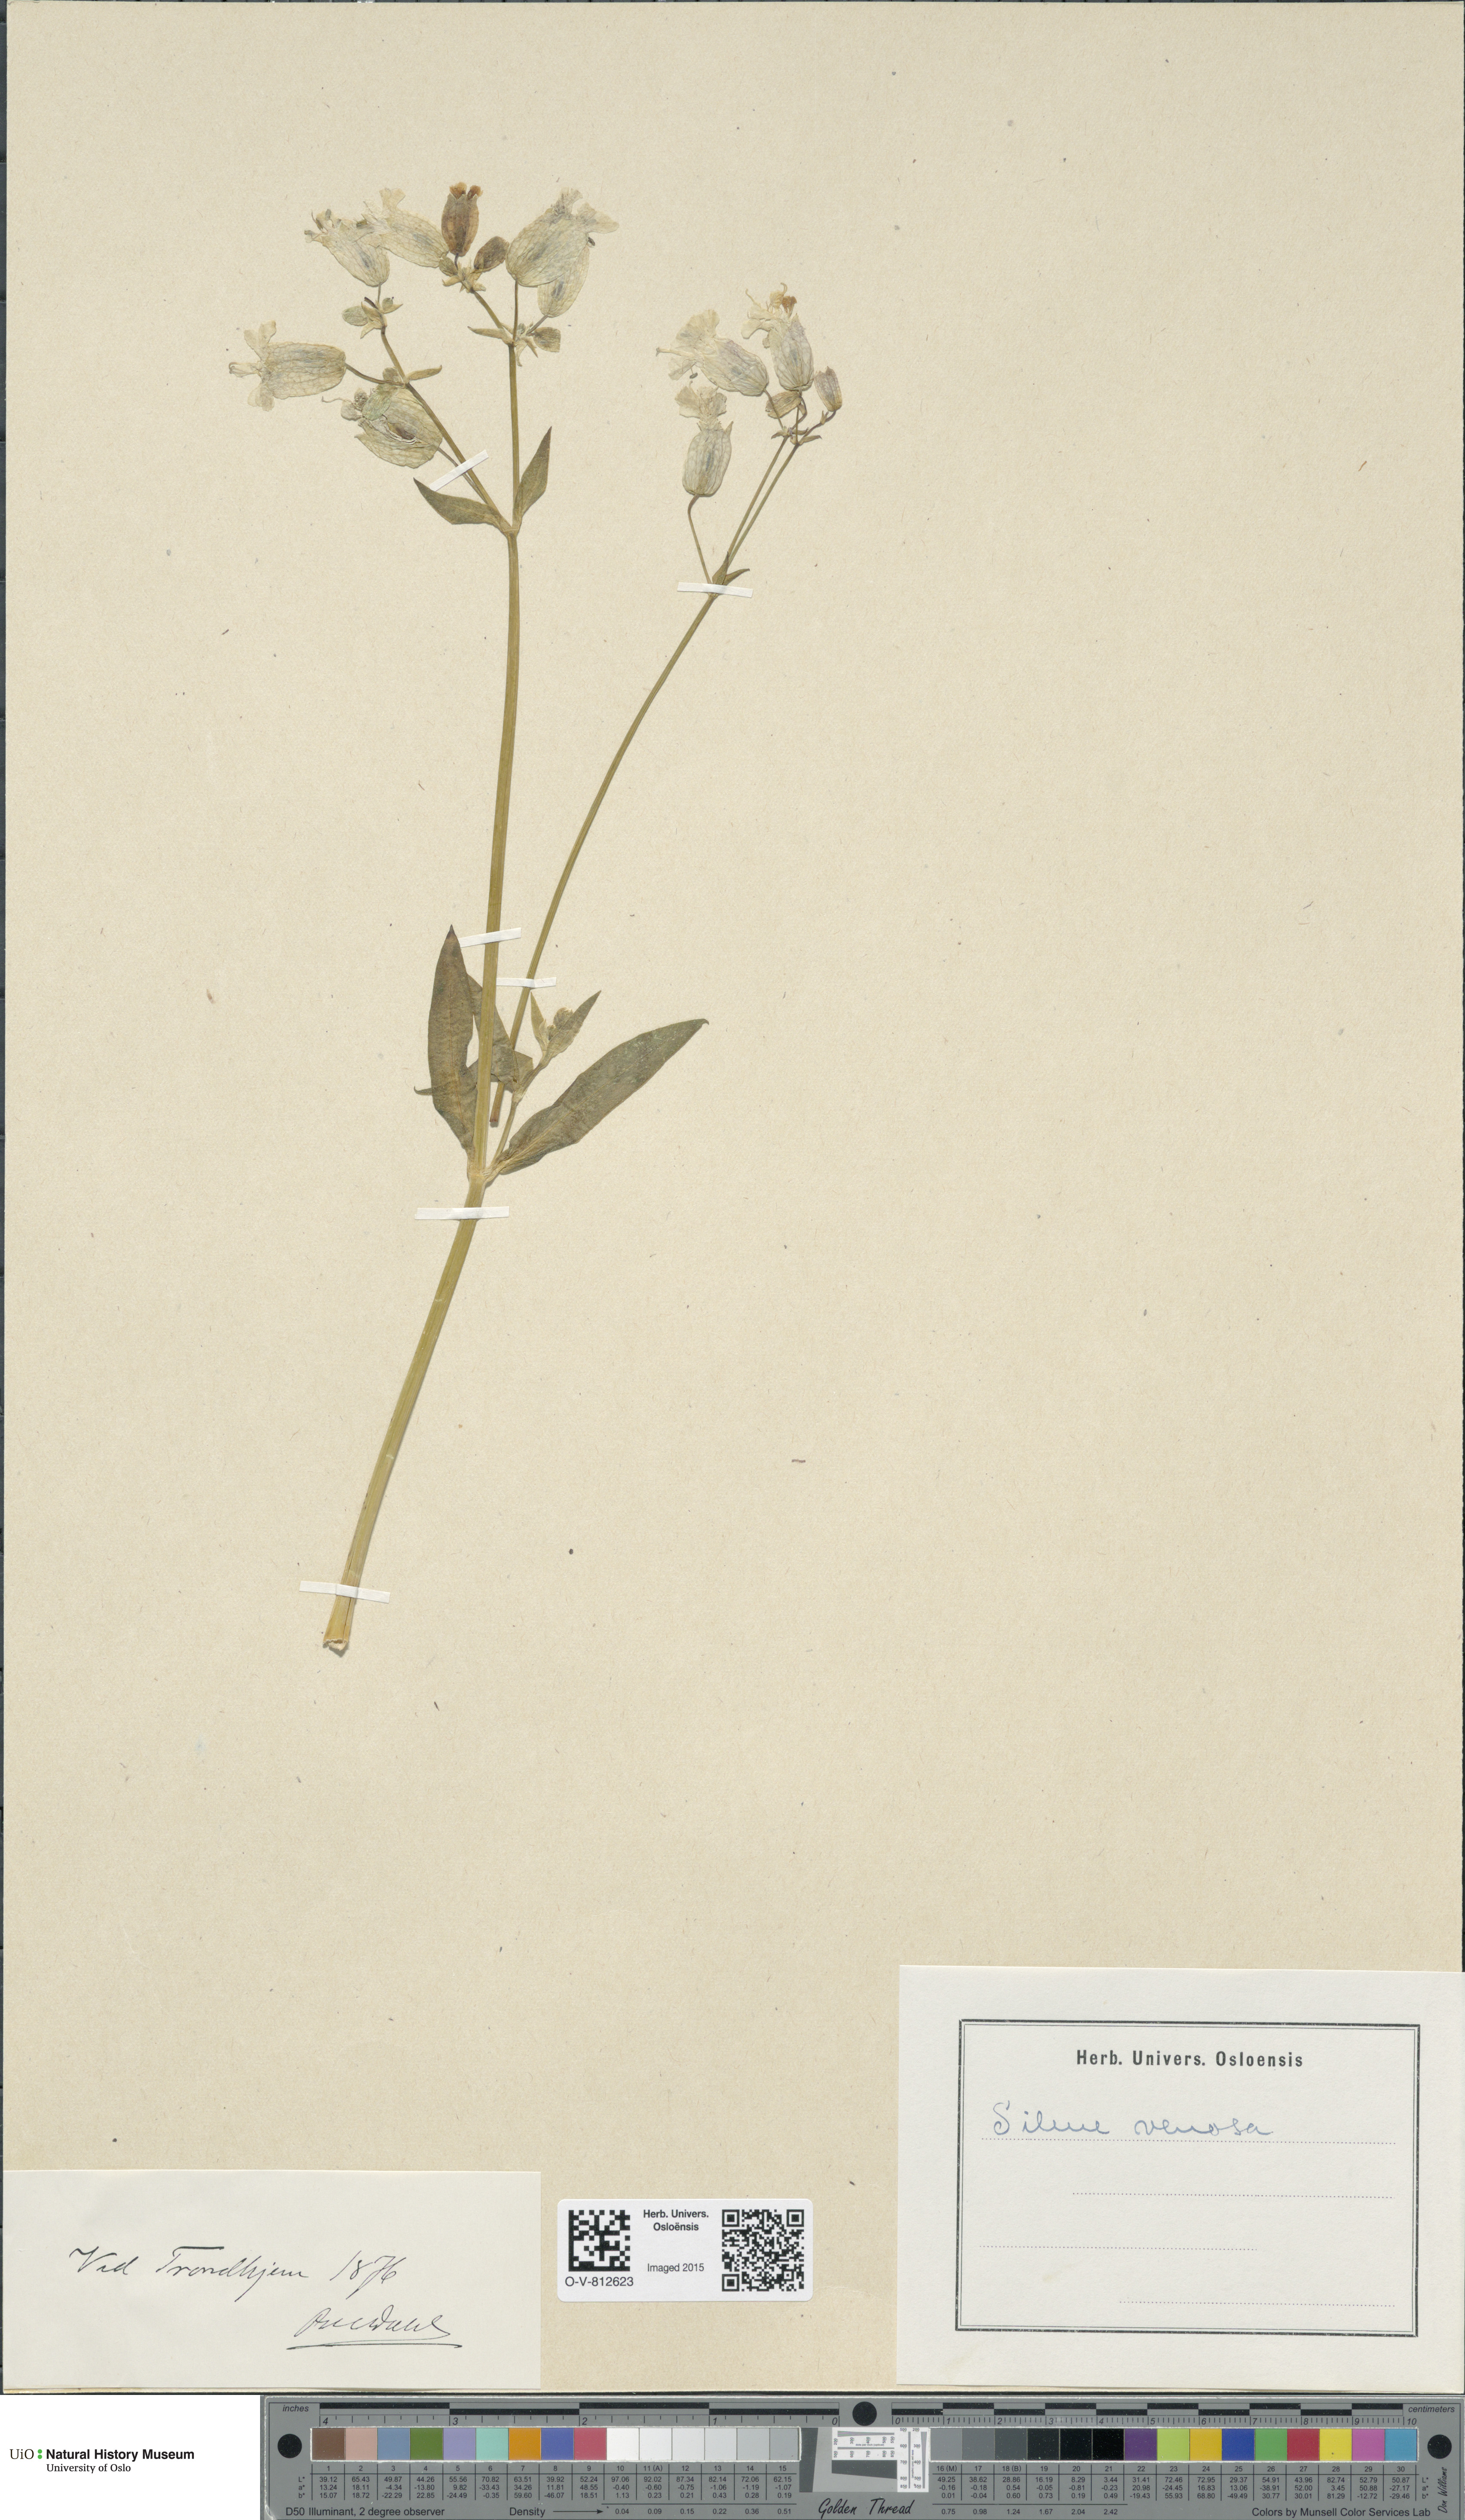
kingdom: Plantae
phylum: Tracheophyta
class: Magnoliopsida
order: Caryophyllales
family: Caryophyllaceae
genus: Silene
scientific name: Silene vulgaris
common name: Bladder campion
